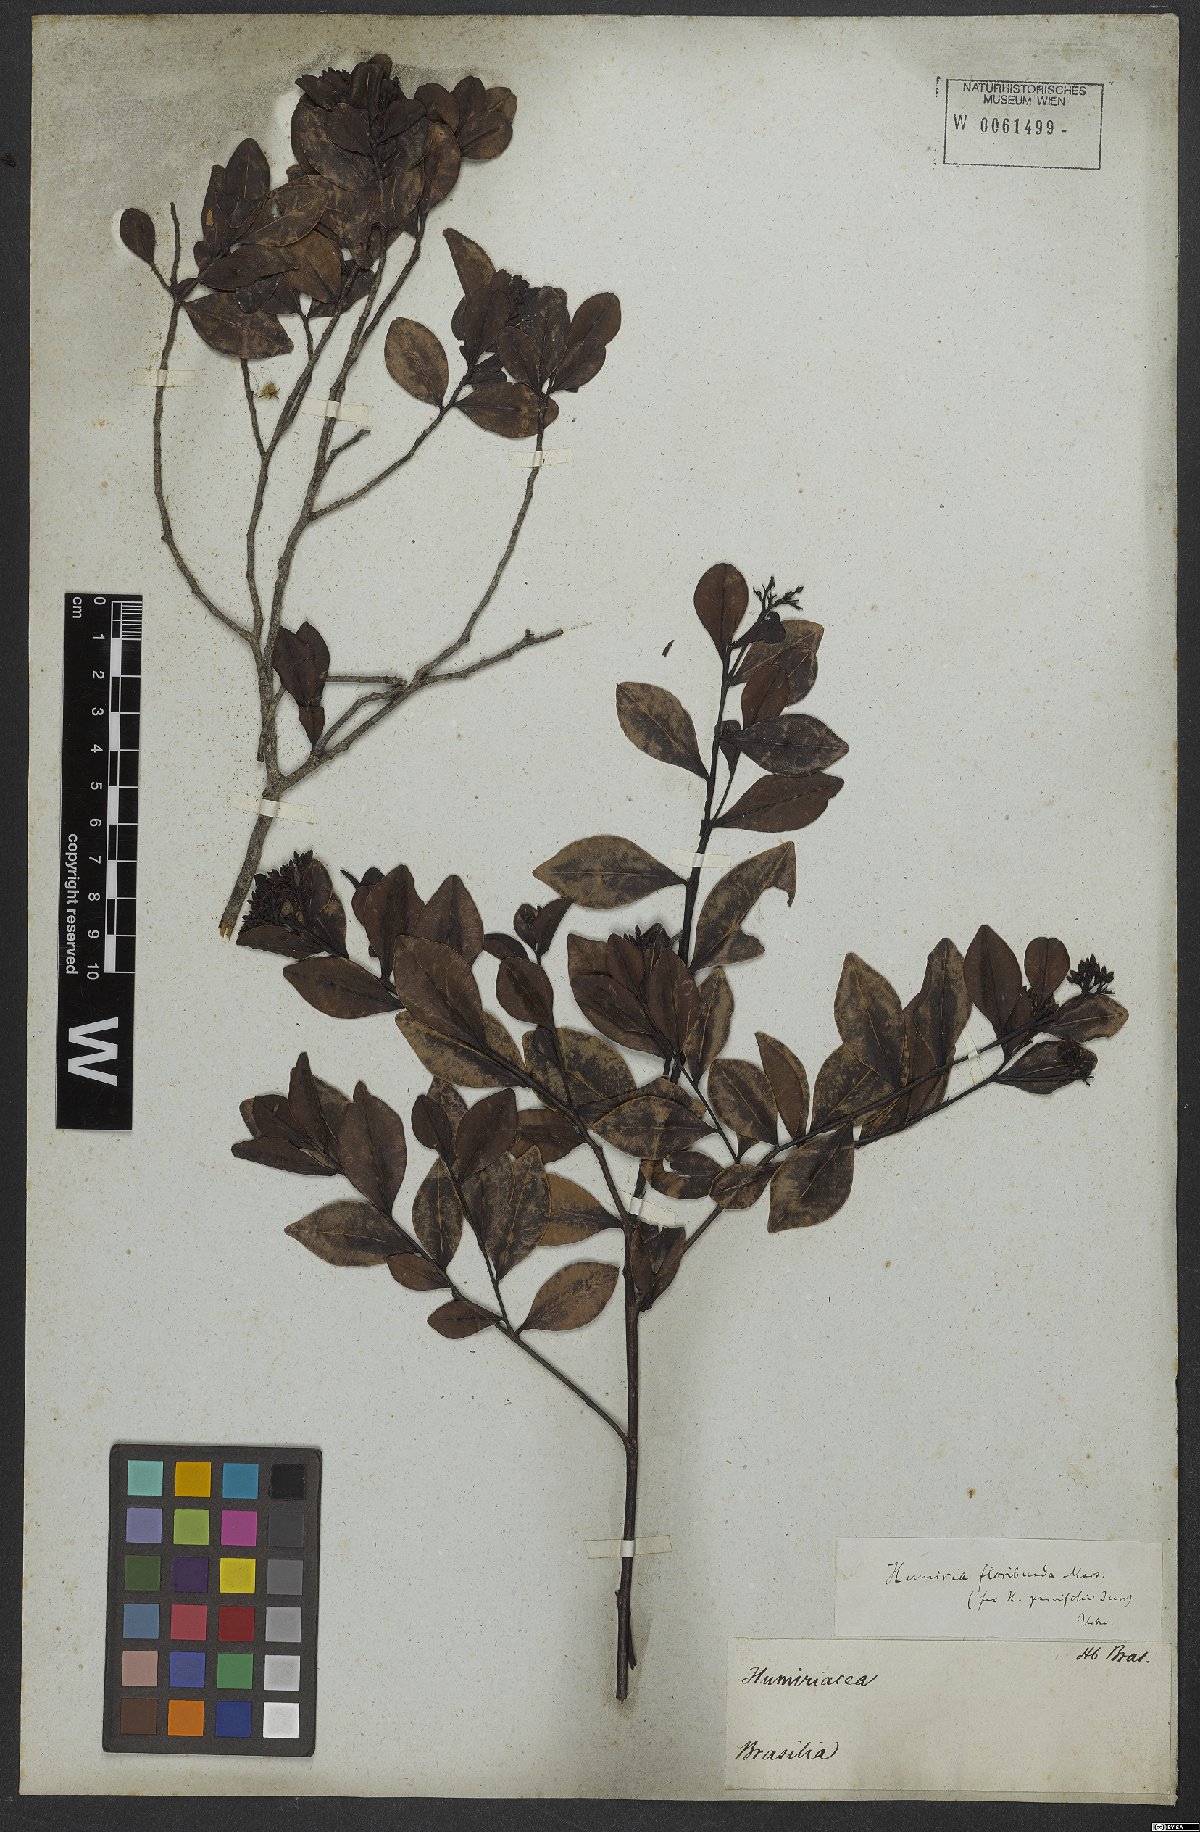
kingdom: Plantae
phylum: Tracheophyta
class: Magnoliopsida
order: Malpighiales
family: Humiriaceae
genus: Humiria
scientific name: Humiria parvifolia
